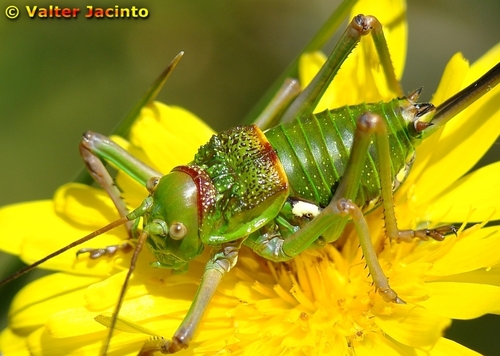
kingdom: Animalia
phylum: Arthropoda
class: Insecta
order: Orthoptera
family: Tettigoniidae
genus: Neocallicrania
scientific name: Neocallicrania serrata
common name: Serrated saddle bush-cricket
